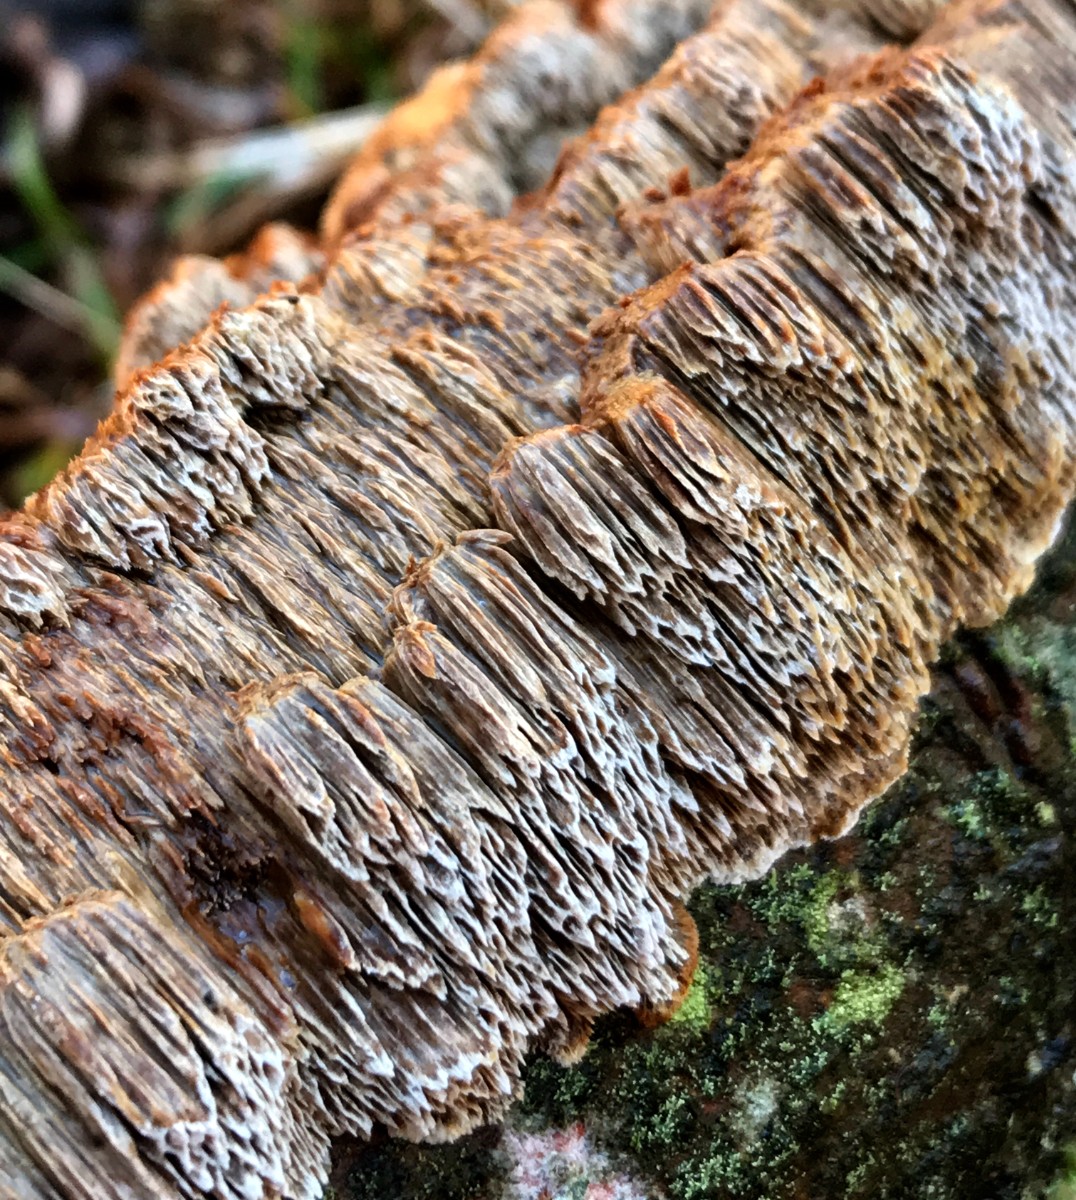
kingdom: Fungi
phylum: Basidiomycota
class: Agaricomycetes
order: Hymenochaetales
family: Hymenochaetaceae
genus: Mensularia
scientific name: Mensularia nodulosa
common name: bøge-spejlporesvamp
